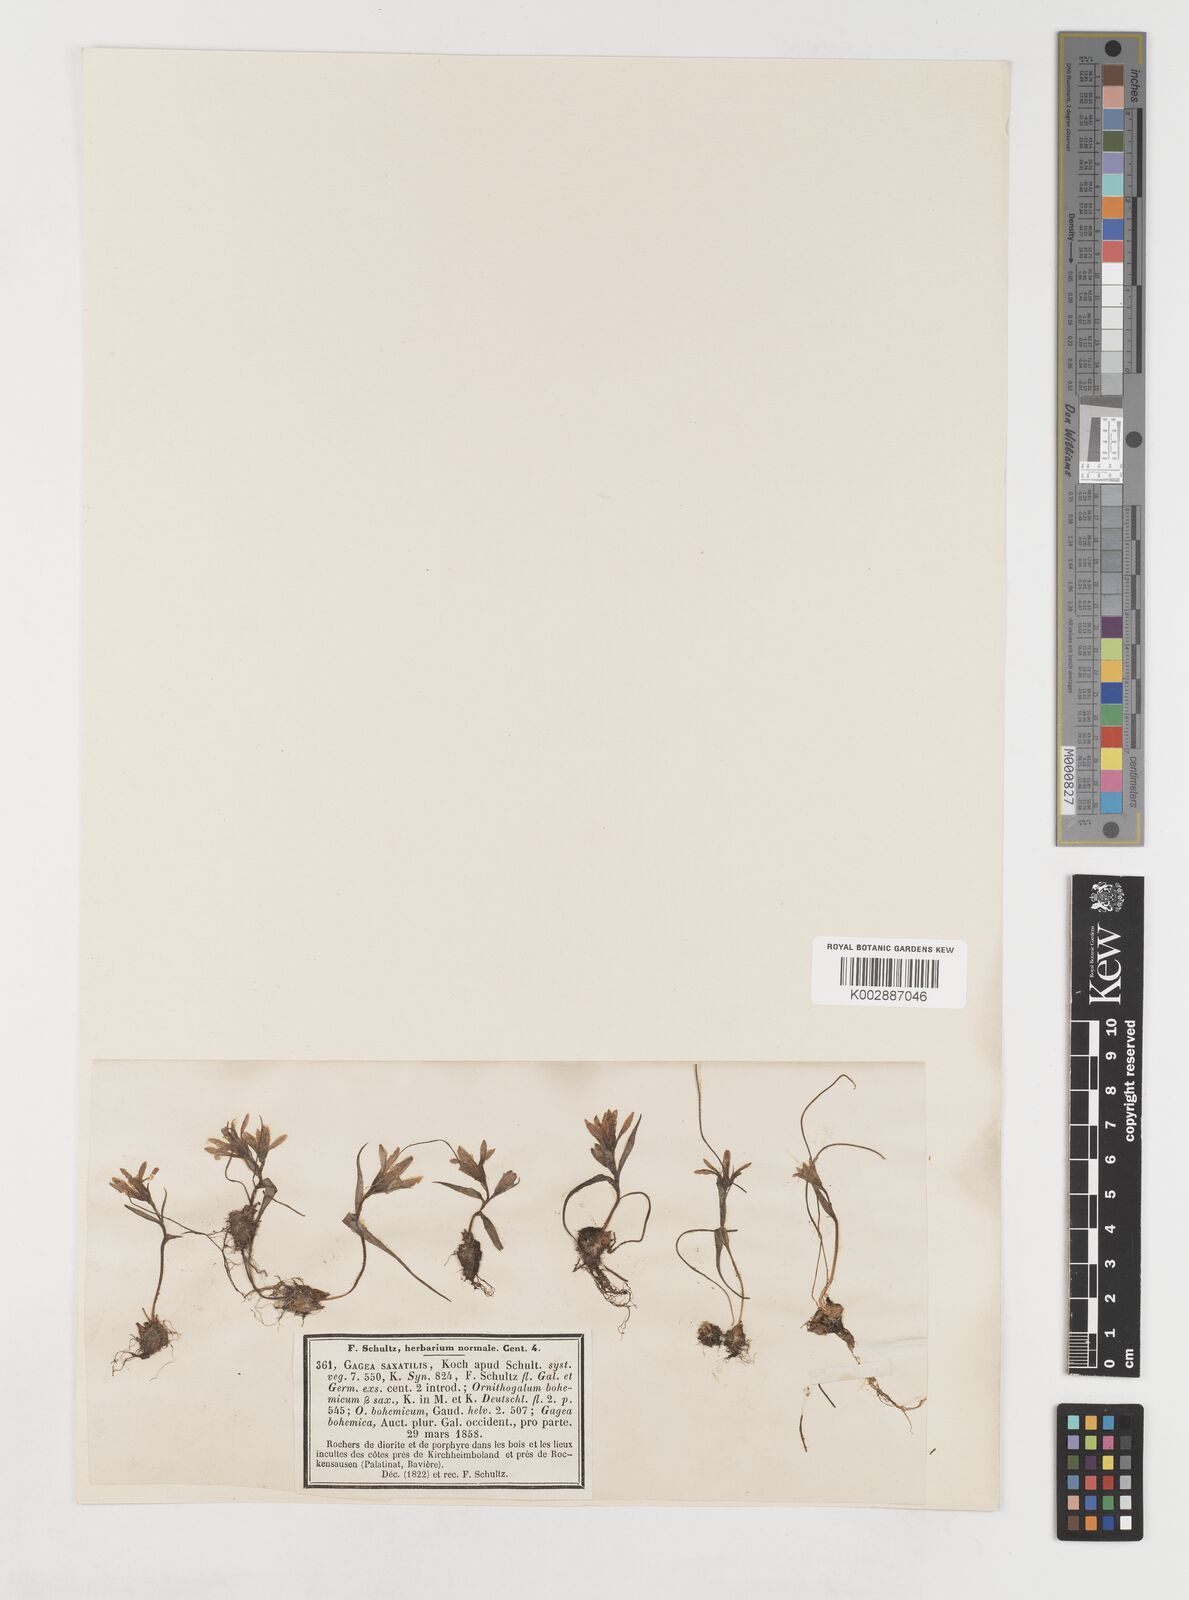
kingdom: Plantae
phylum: Tracheophyta
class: Liliopsida
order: Liliales
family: Liliaceae
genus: Gagea
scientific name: Gagea bohemica
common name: Early star-of-bethlehem
